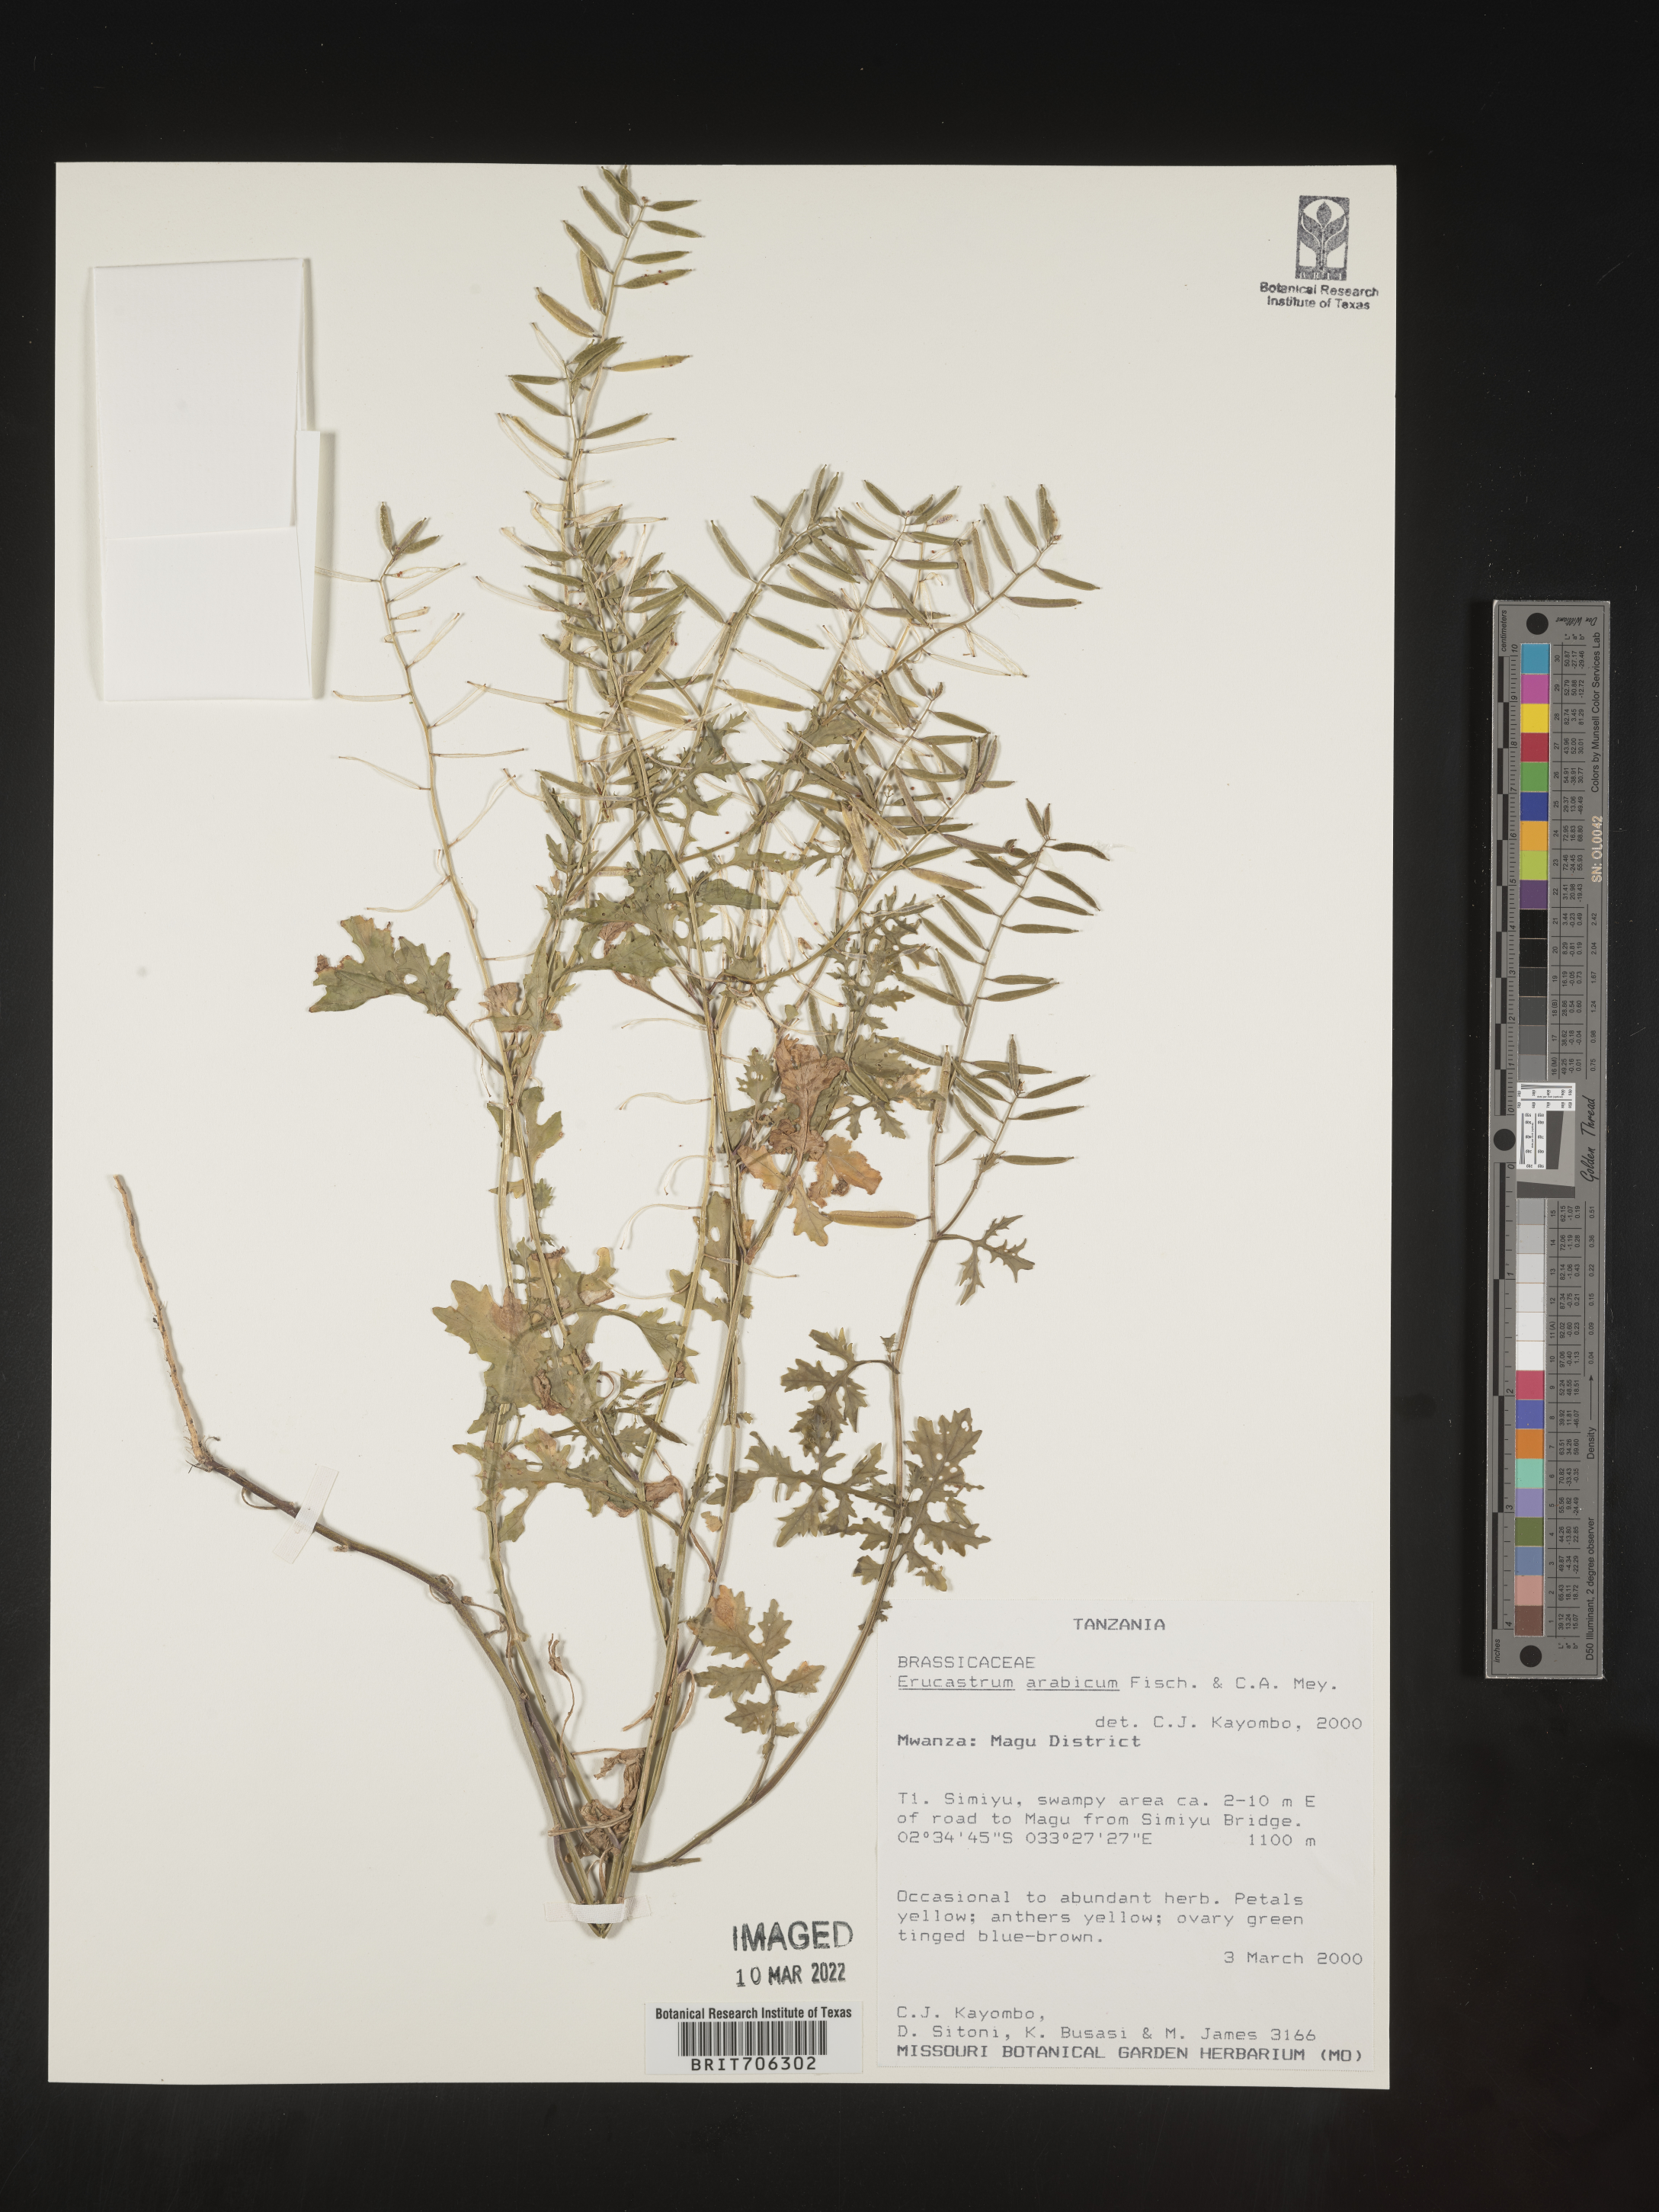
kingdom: Plantae
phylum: Tracheophyta
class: Magnoliopsida
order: Brassicales
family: Brassicaceae
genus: Erucastrum
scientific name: Erucastrum
